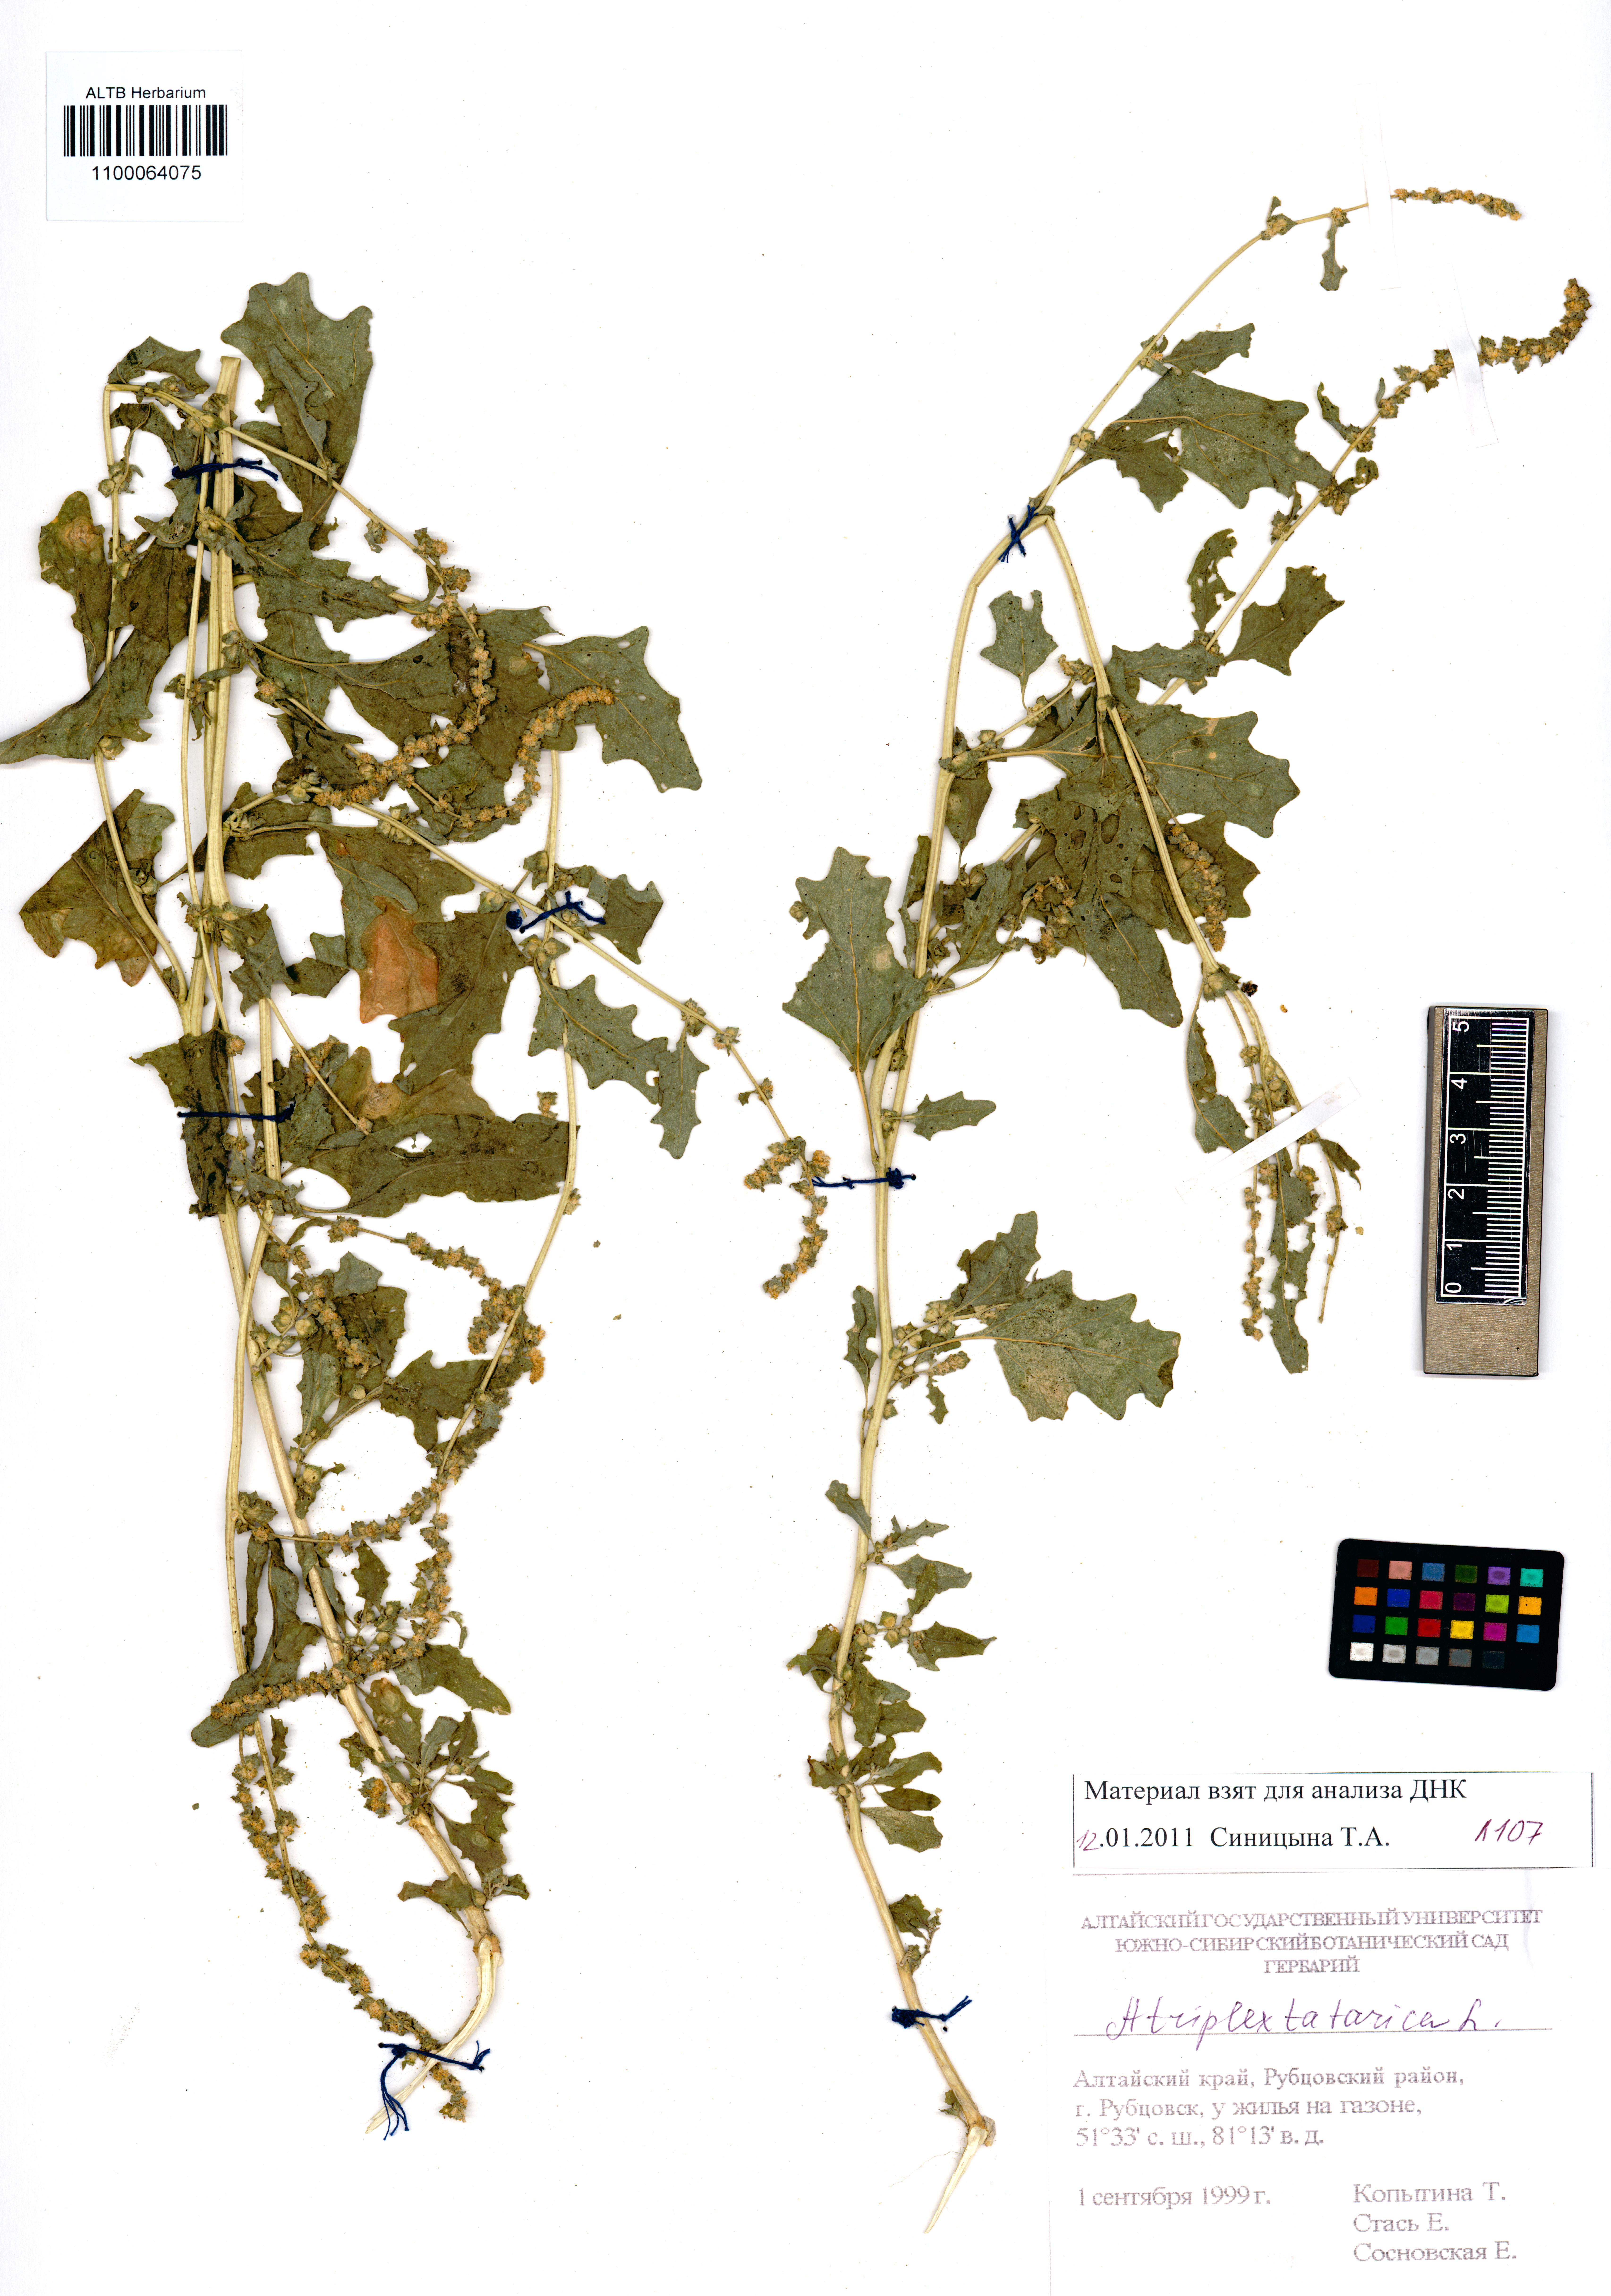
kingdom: Plantae
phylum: Tracheophyta
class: Magnoliopsida
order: Caryophyllales
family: Amaranthaceae
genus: Atriplex
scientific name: Atriplex tatarica
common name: Tatarian orache
